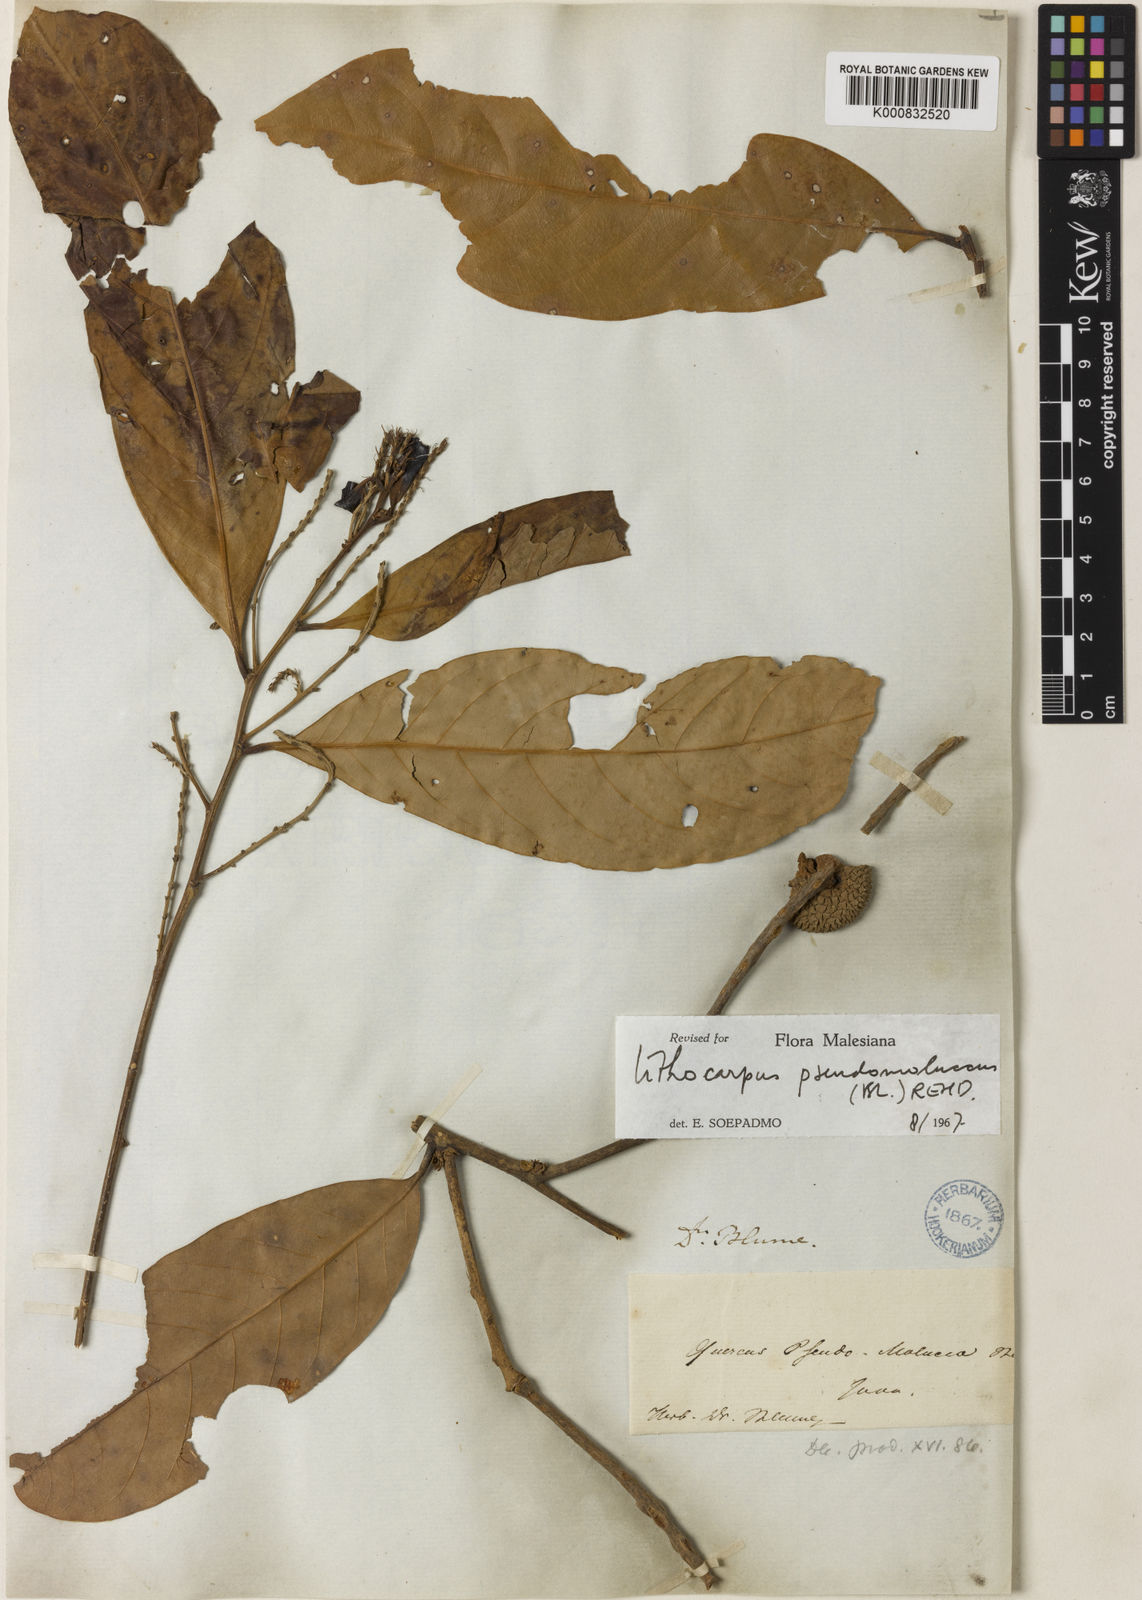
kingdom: Plantae
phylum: Tracheophyta
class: Magnoliopsida
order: Fagales
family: Fagaceae
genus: Lithocarpus
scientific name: Lithocarpus pseudomoluccus
